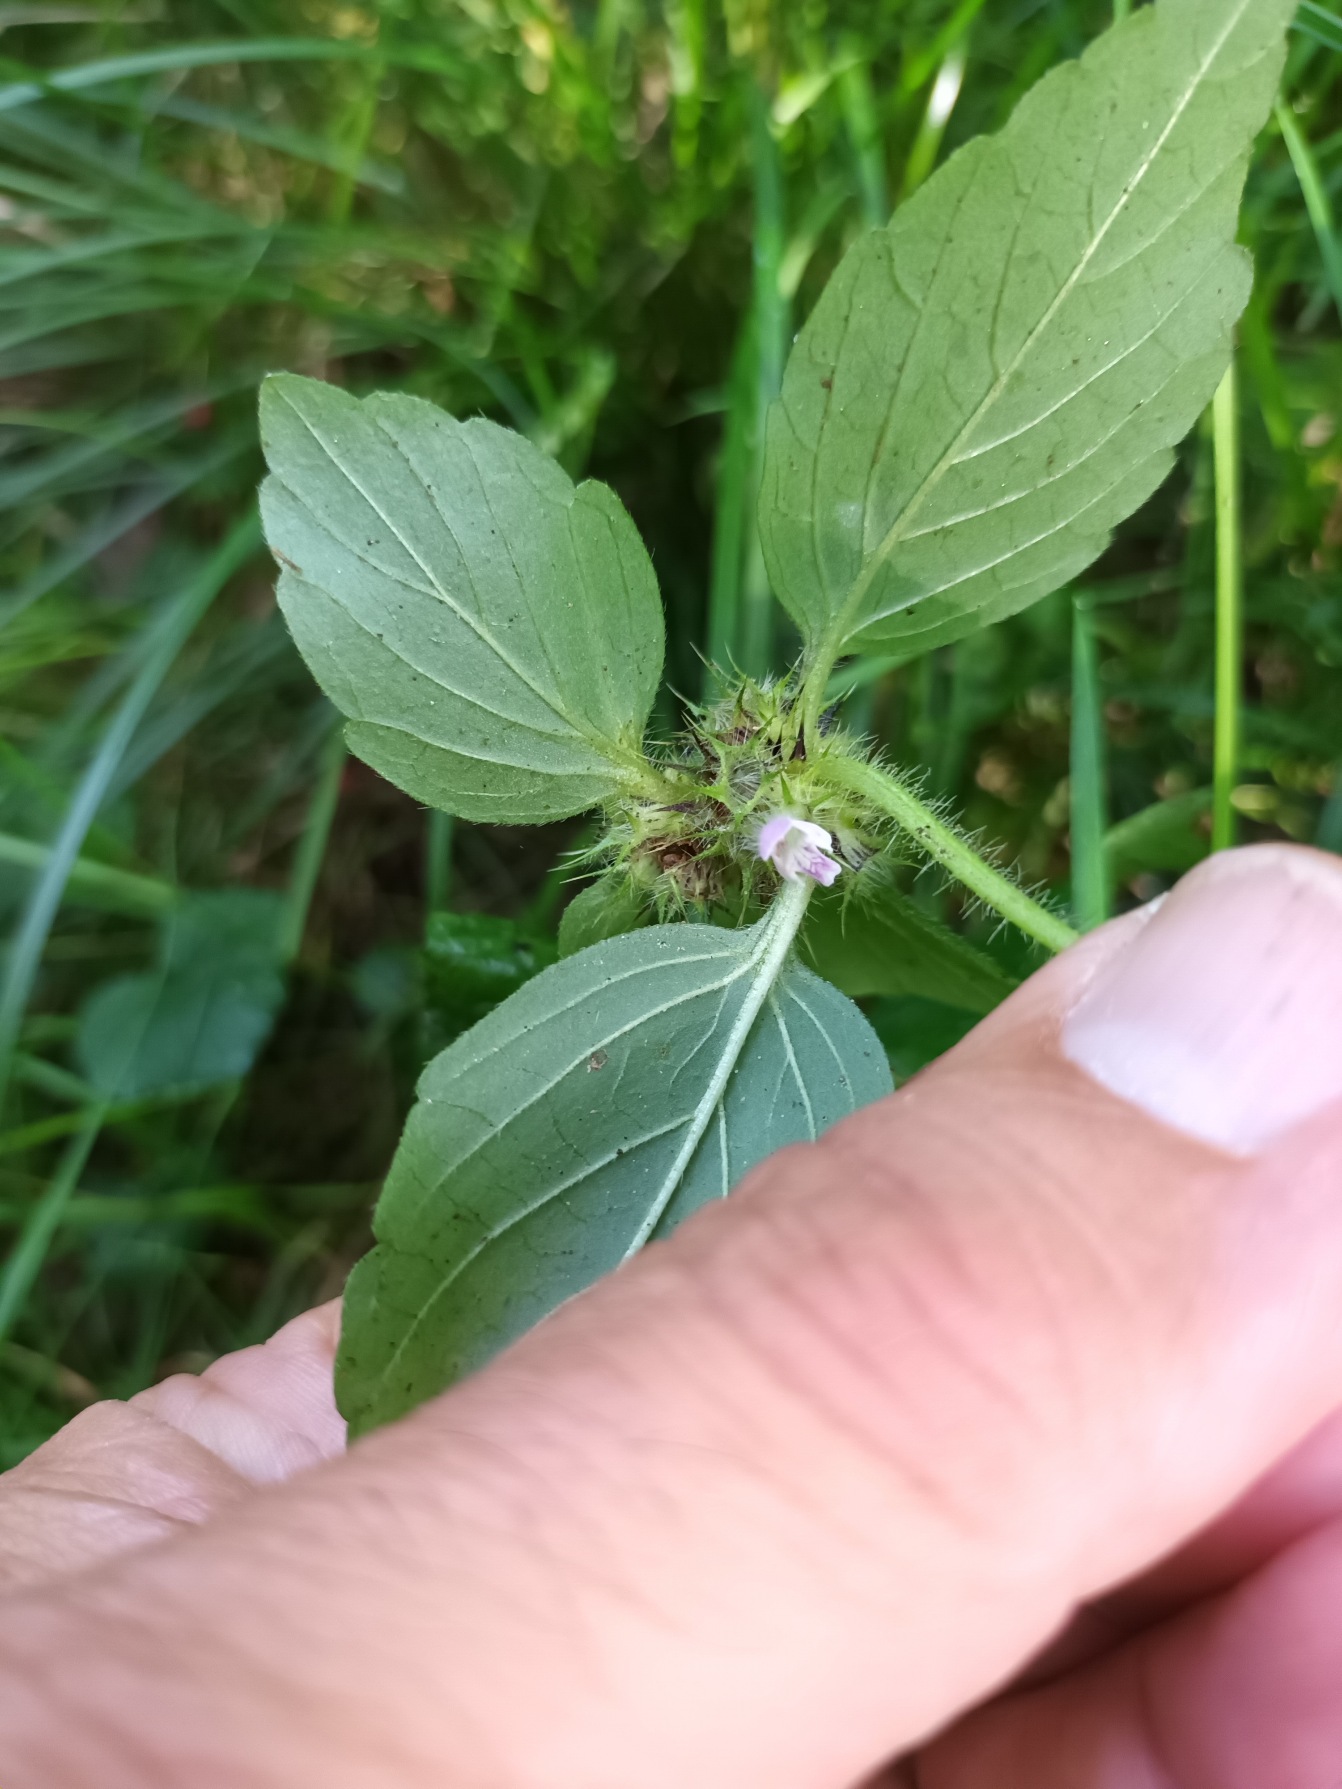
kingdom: Plantae
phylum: Tracheophyta
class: Magnoliopsida
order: Lamiales
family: Lamiaceae
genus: Galeopsis
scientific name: Galeopsis bifida
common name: Skov-hanekro
